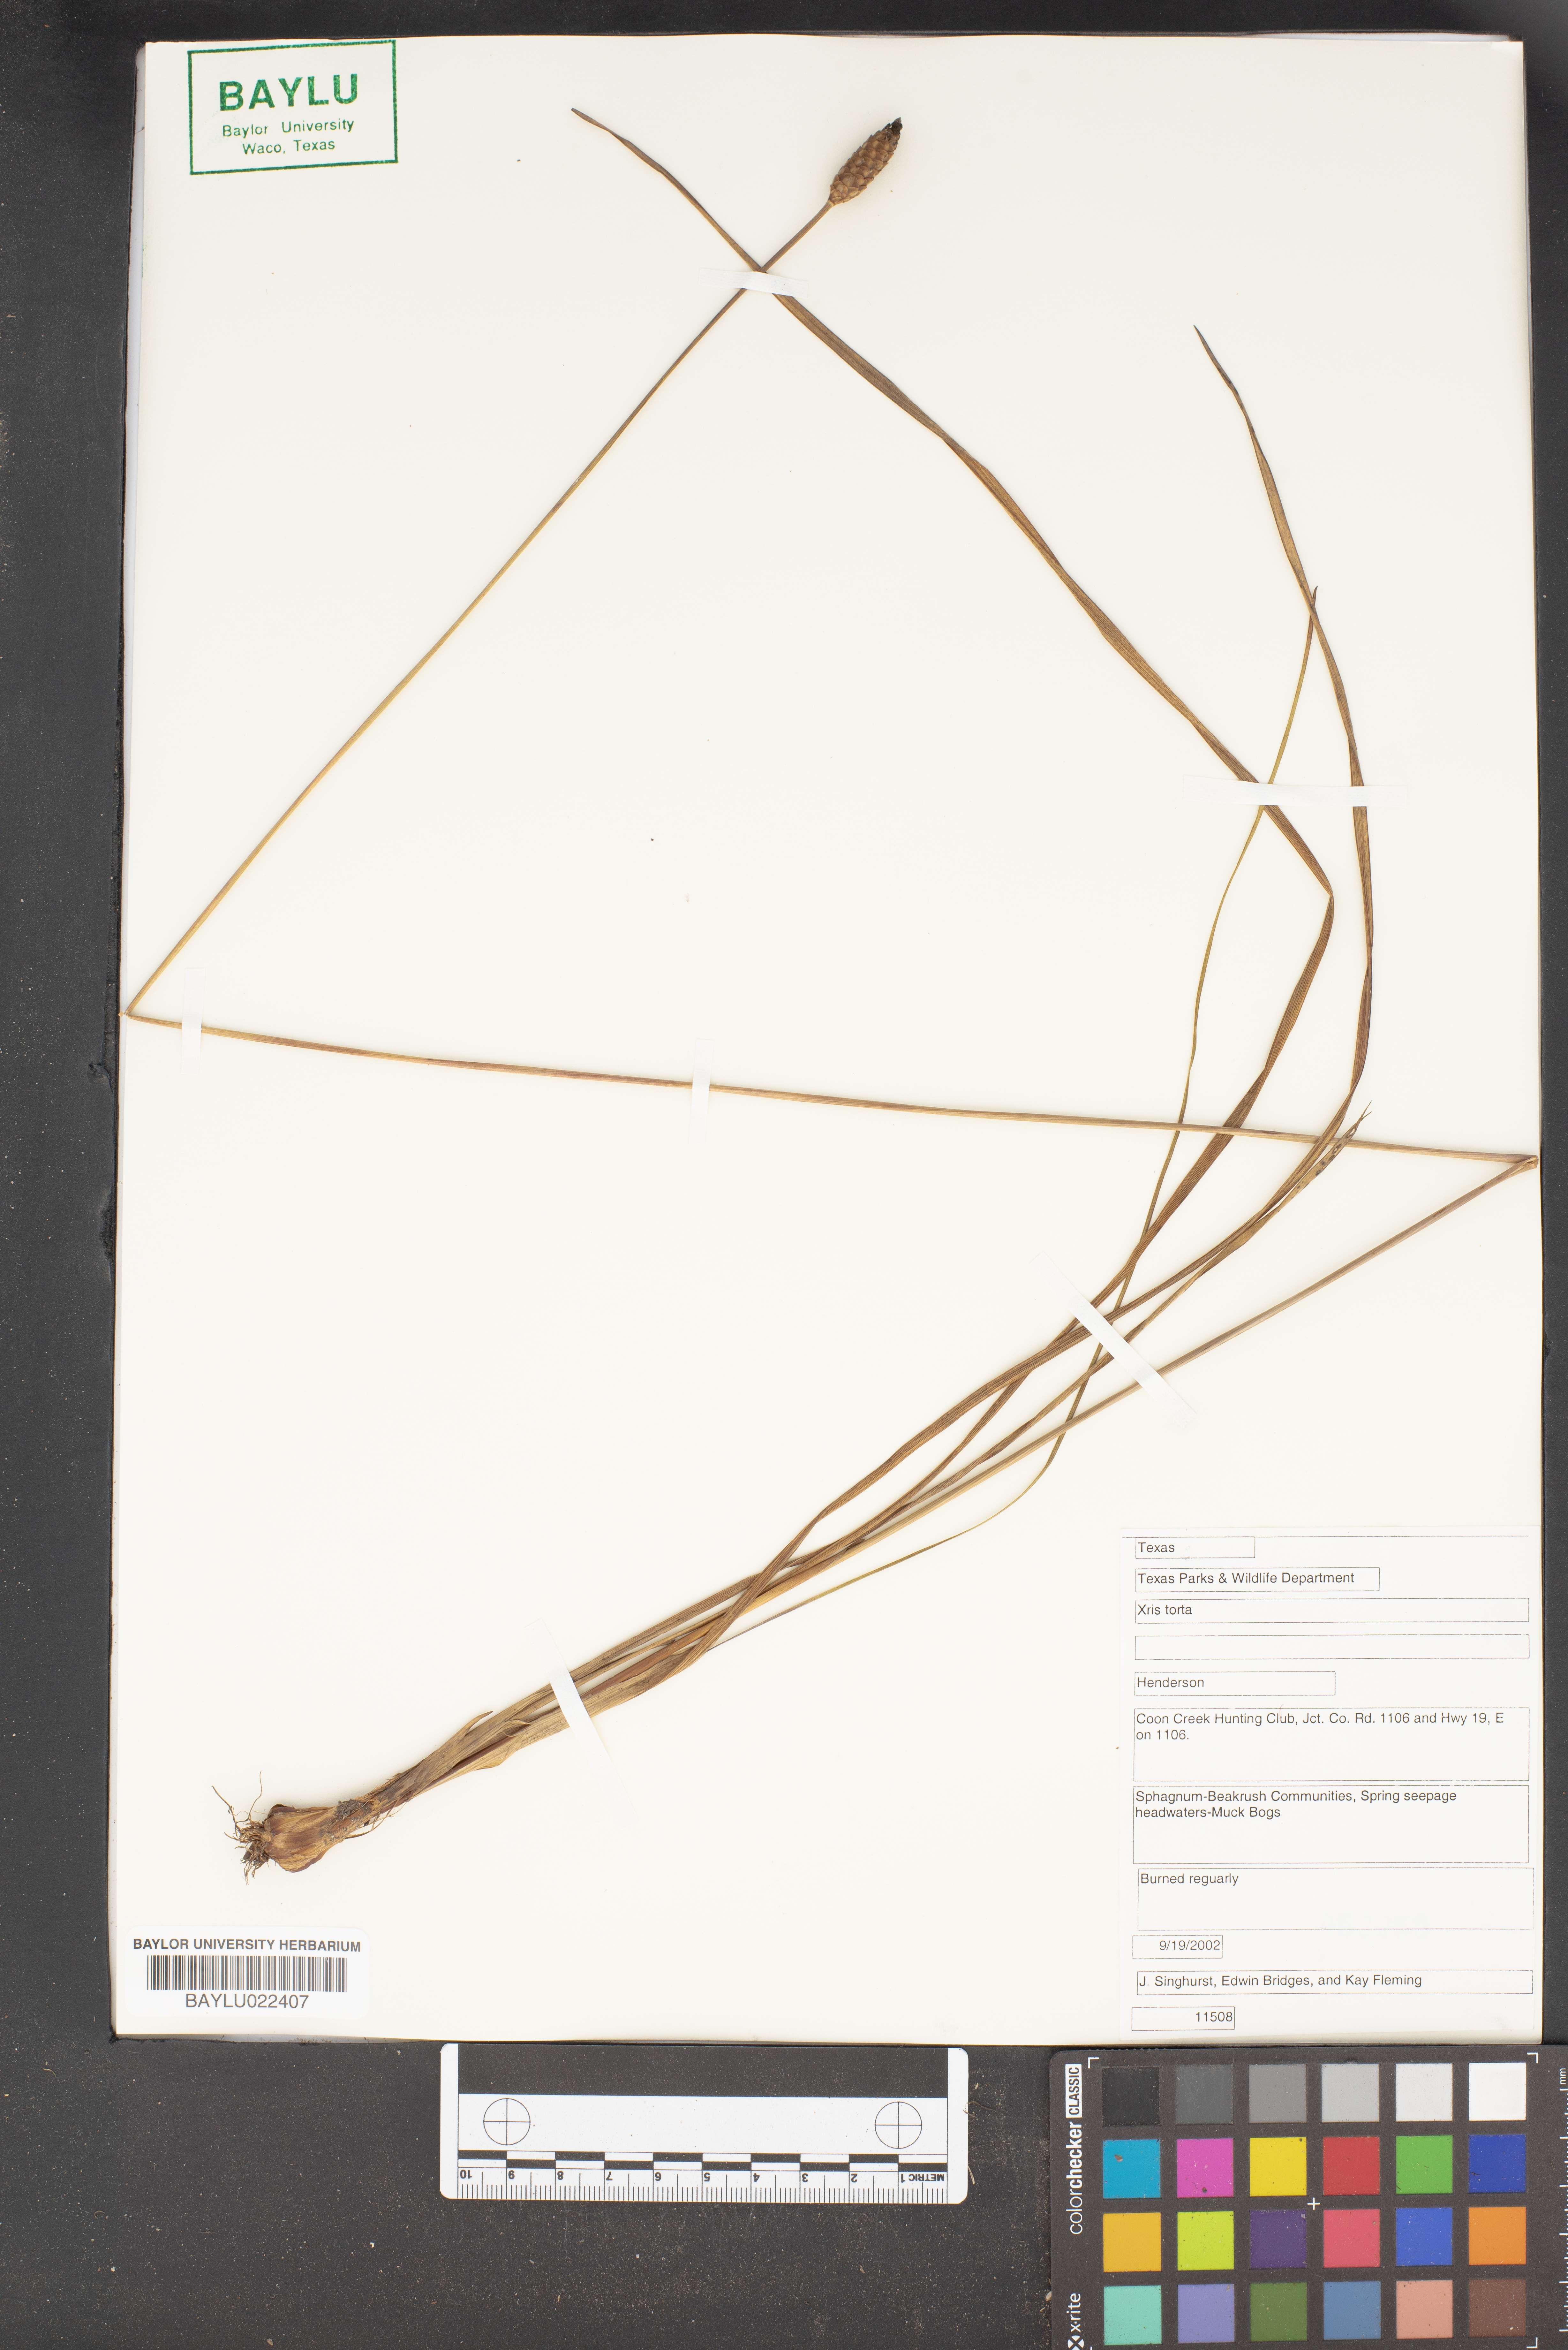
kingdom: Plantae
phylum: Tracheophyta
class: Liliopsida
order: Poales
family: Xyridaceae
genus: Xyris
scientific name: Xyris torta
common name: Common yelloweyed grass
